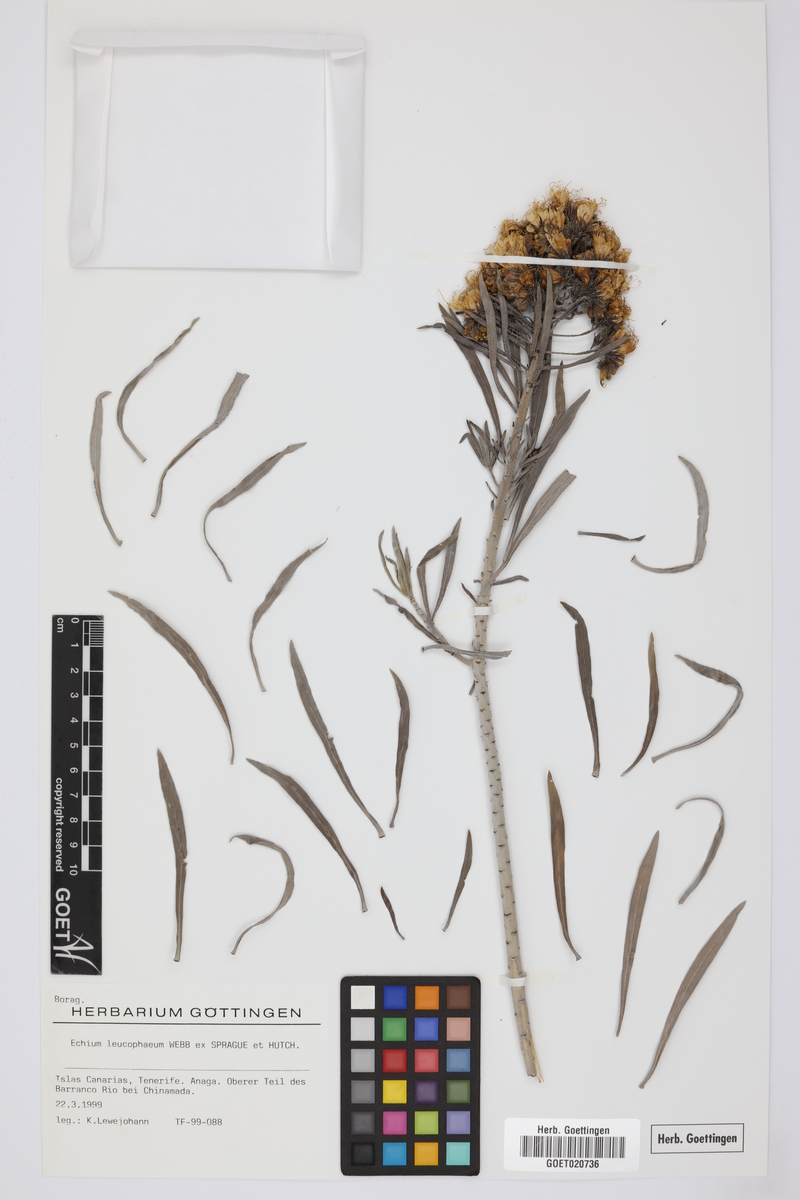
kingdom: Plantae
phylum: Tracheophyta
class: Magnoliopsida
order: Boraginales
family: Boraginaceae
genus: Echium
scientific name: Echium leucophaeum
